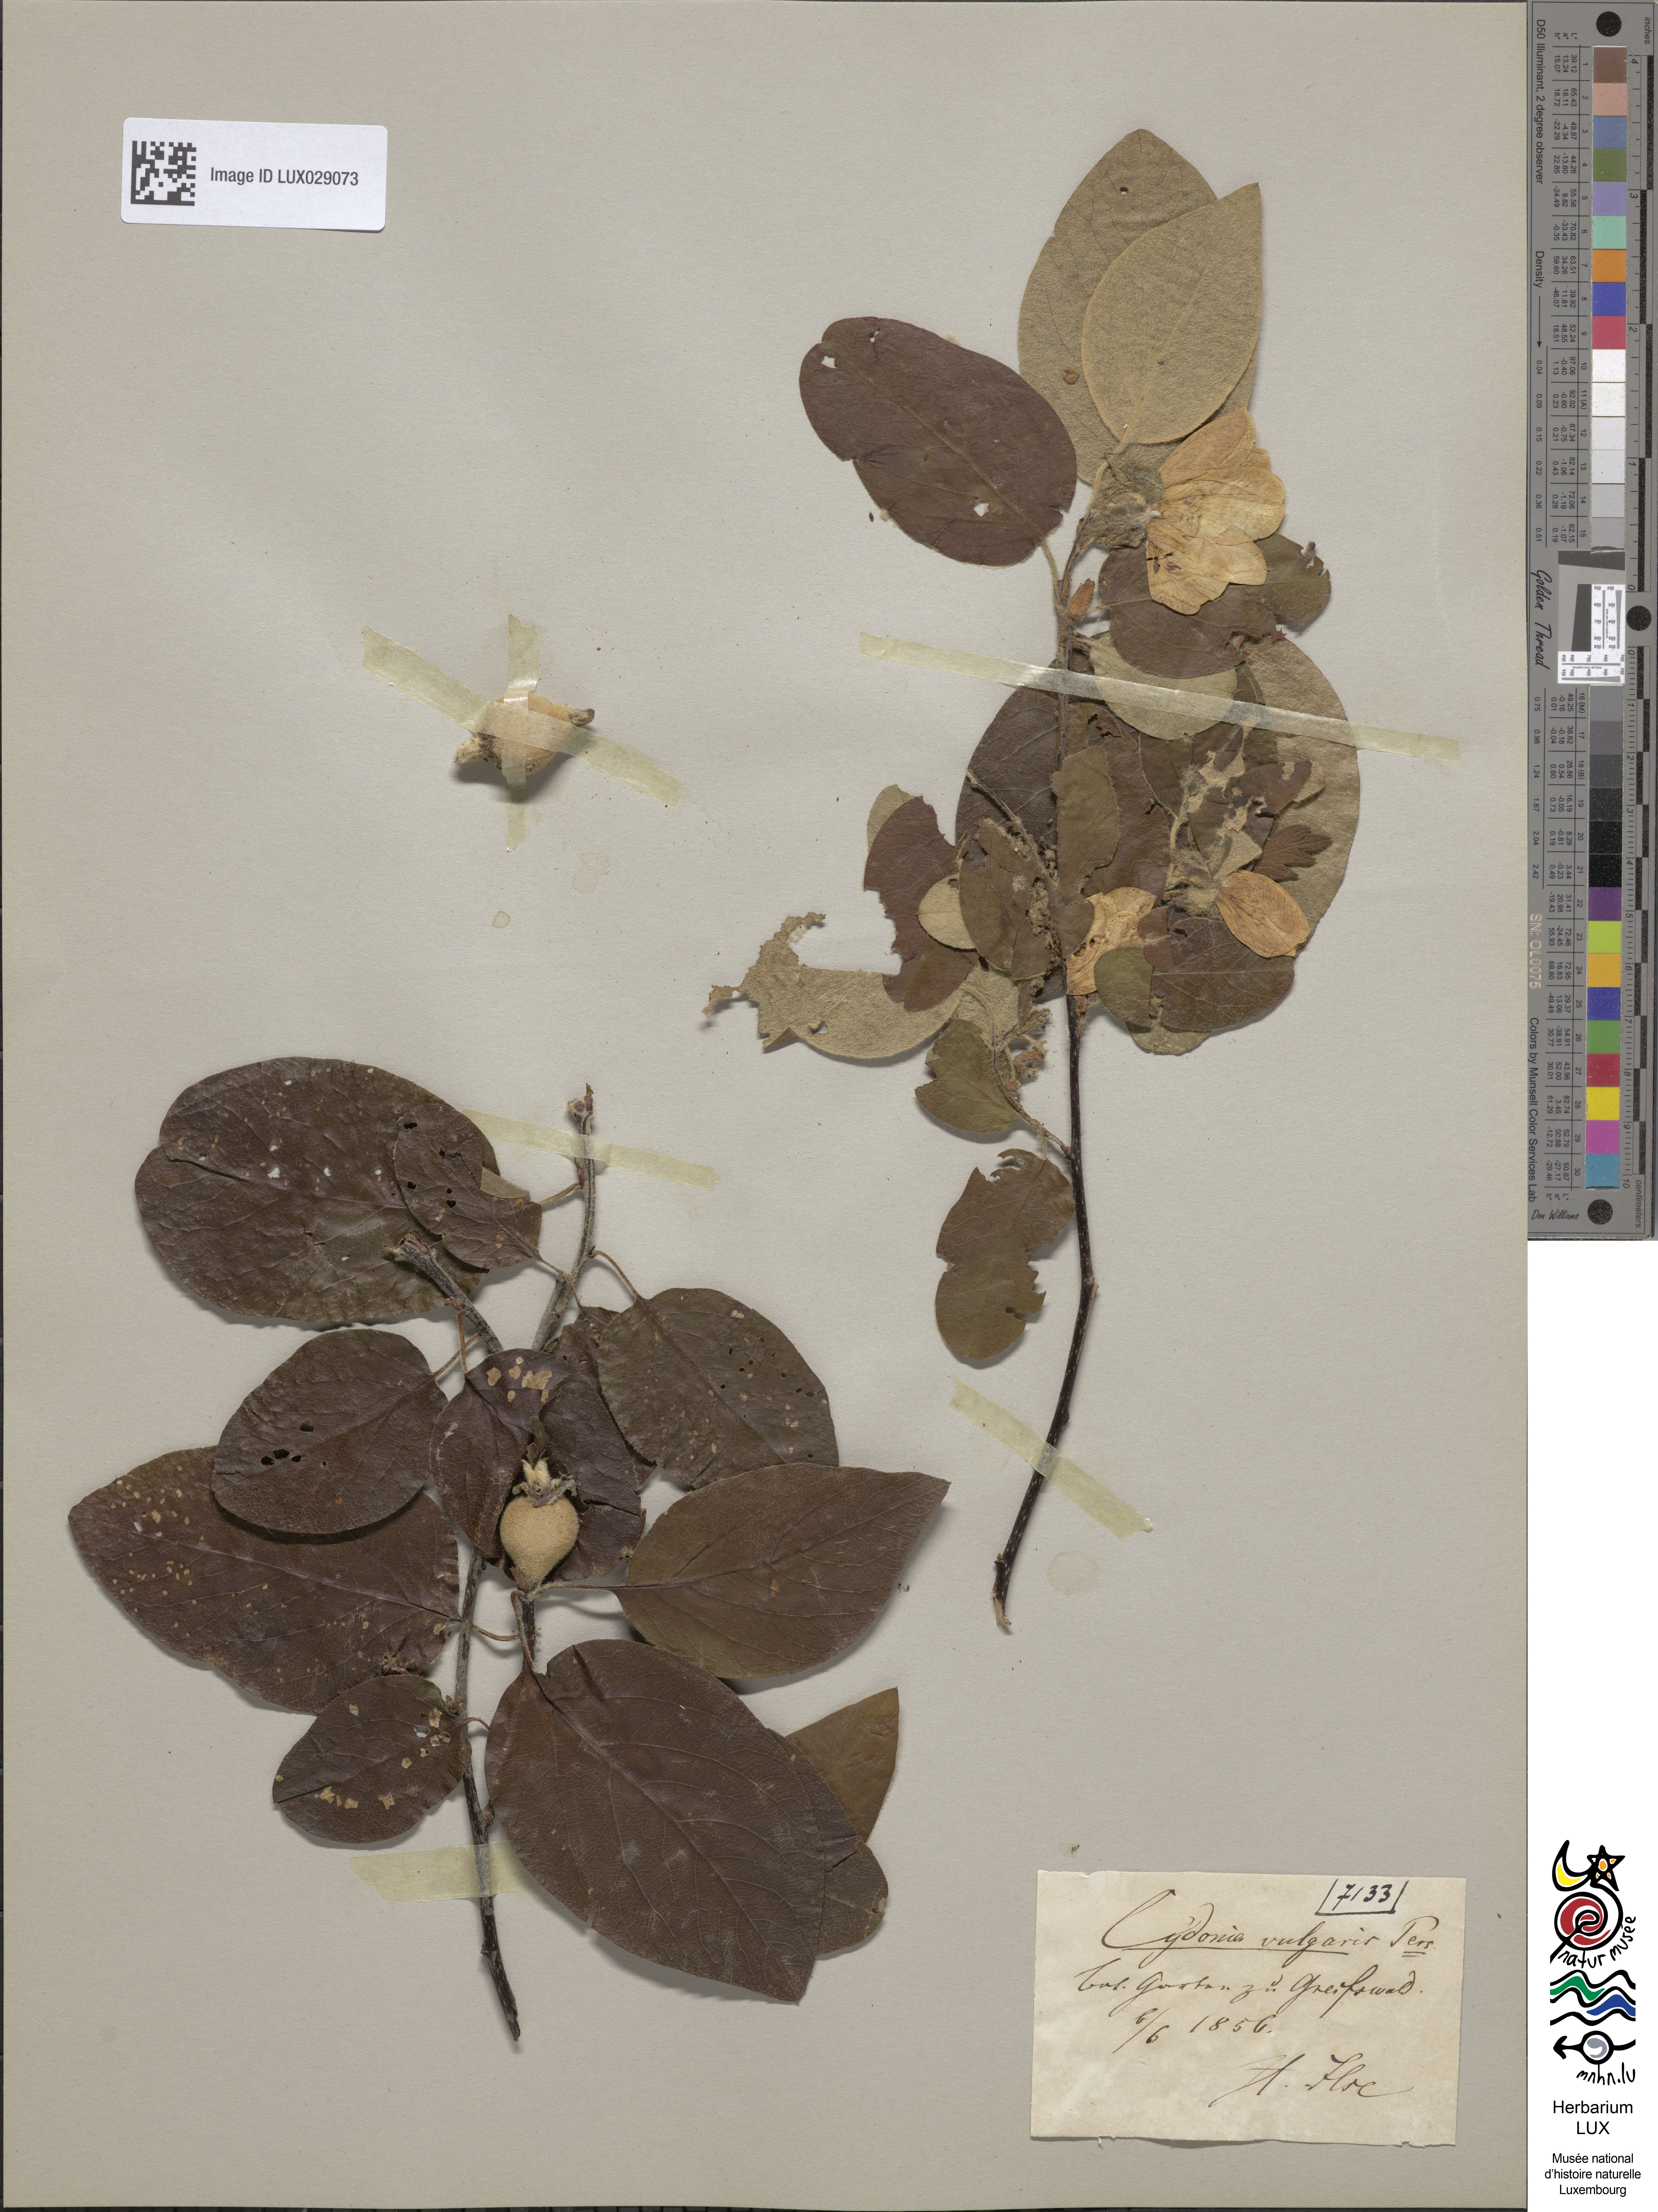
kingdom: Plantae
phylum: Tracheophyta
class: Magnoliopsida
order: Rosales
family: Rosaceae
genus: Cydonia
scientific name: Cydonia oblonga
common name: Quince
